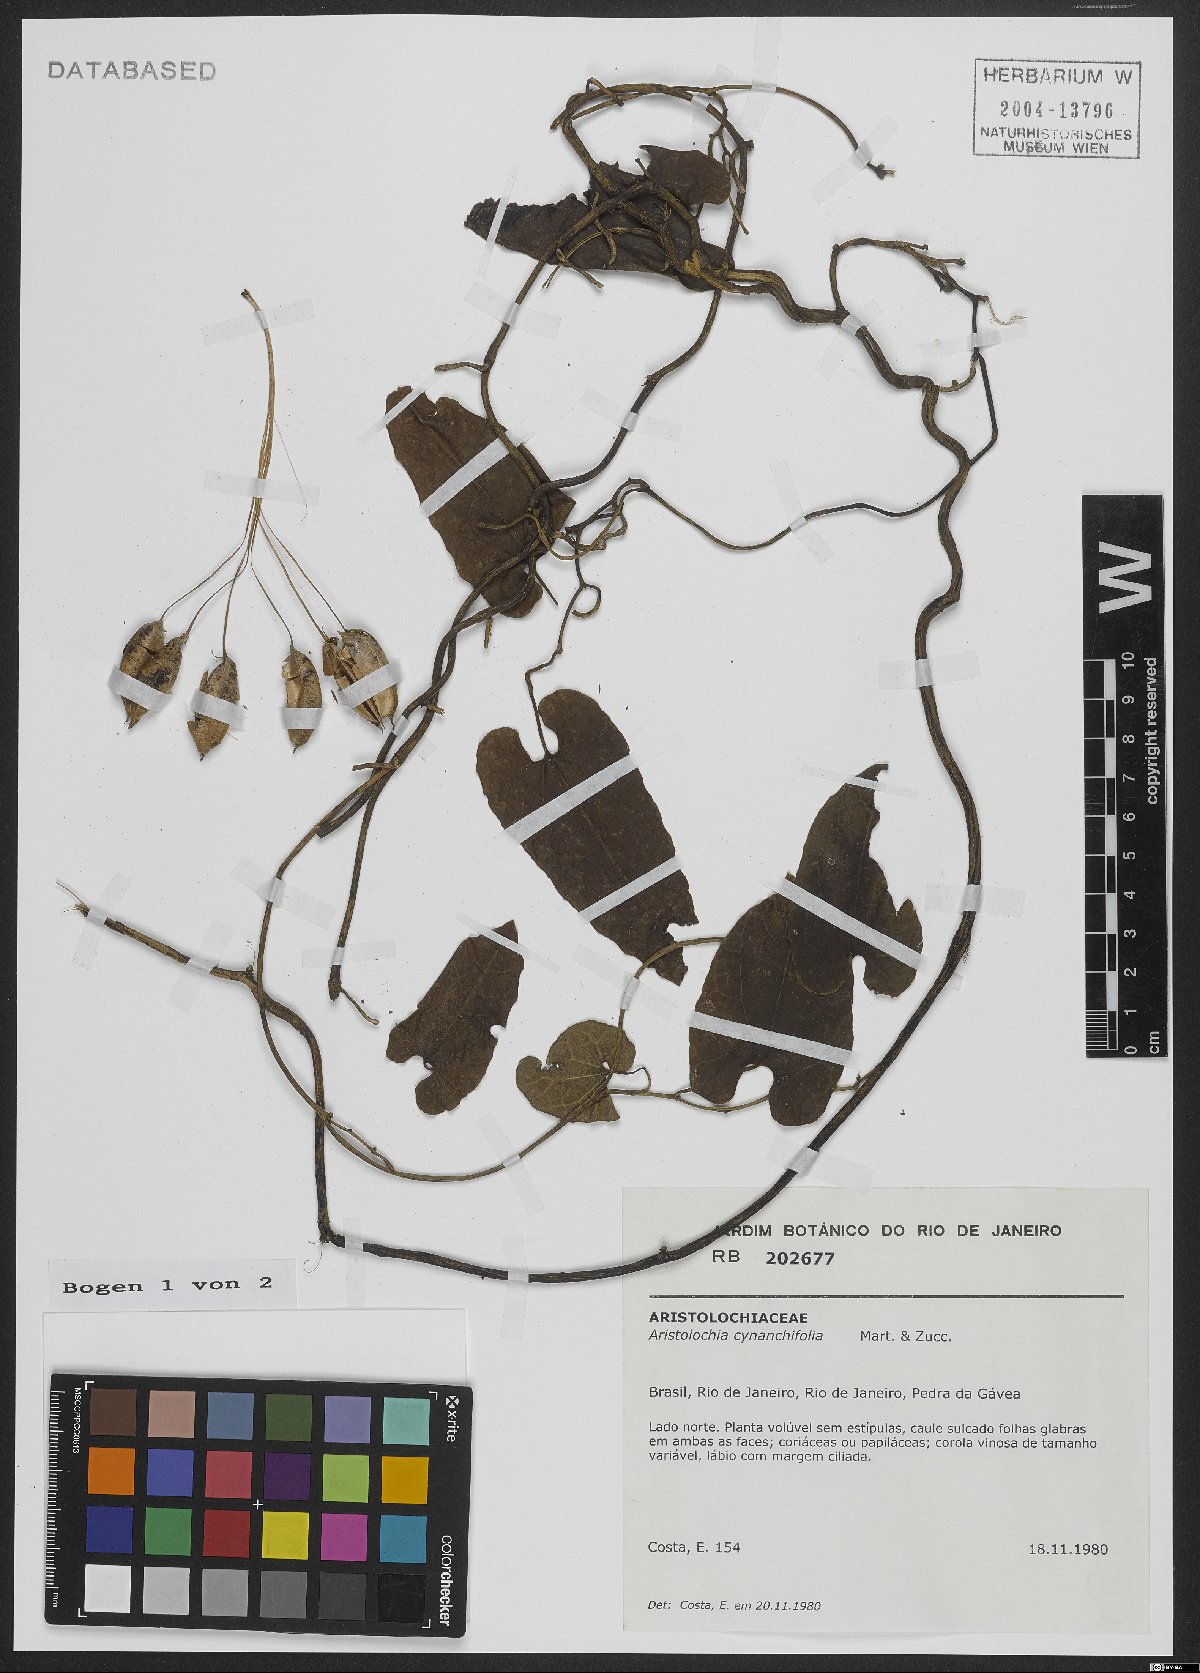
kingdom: Plantae
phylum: Tracheophyta
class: Magnoliopsida
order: Piperales
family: Aristolochiaceae
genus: Aristolochia
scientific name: Aristolochia cynanchifolia
